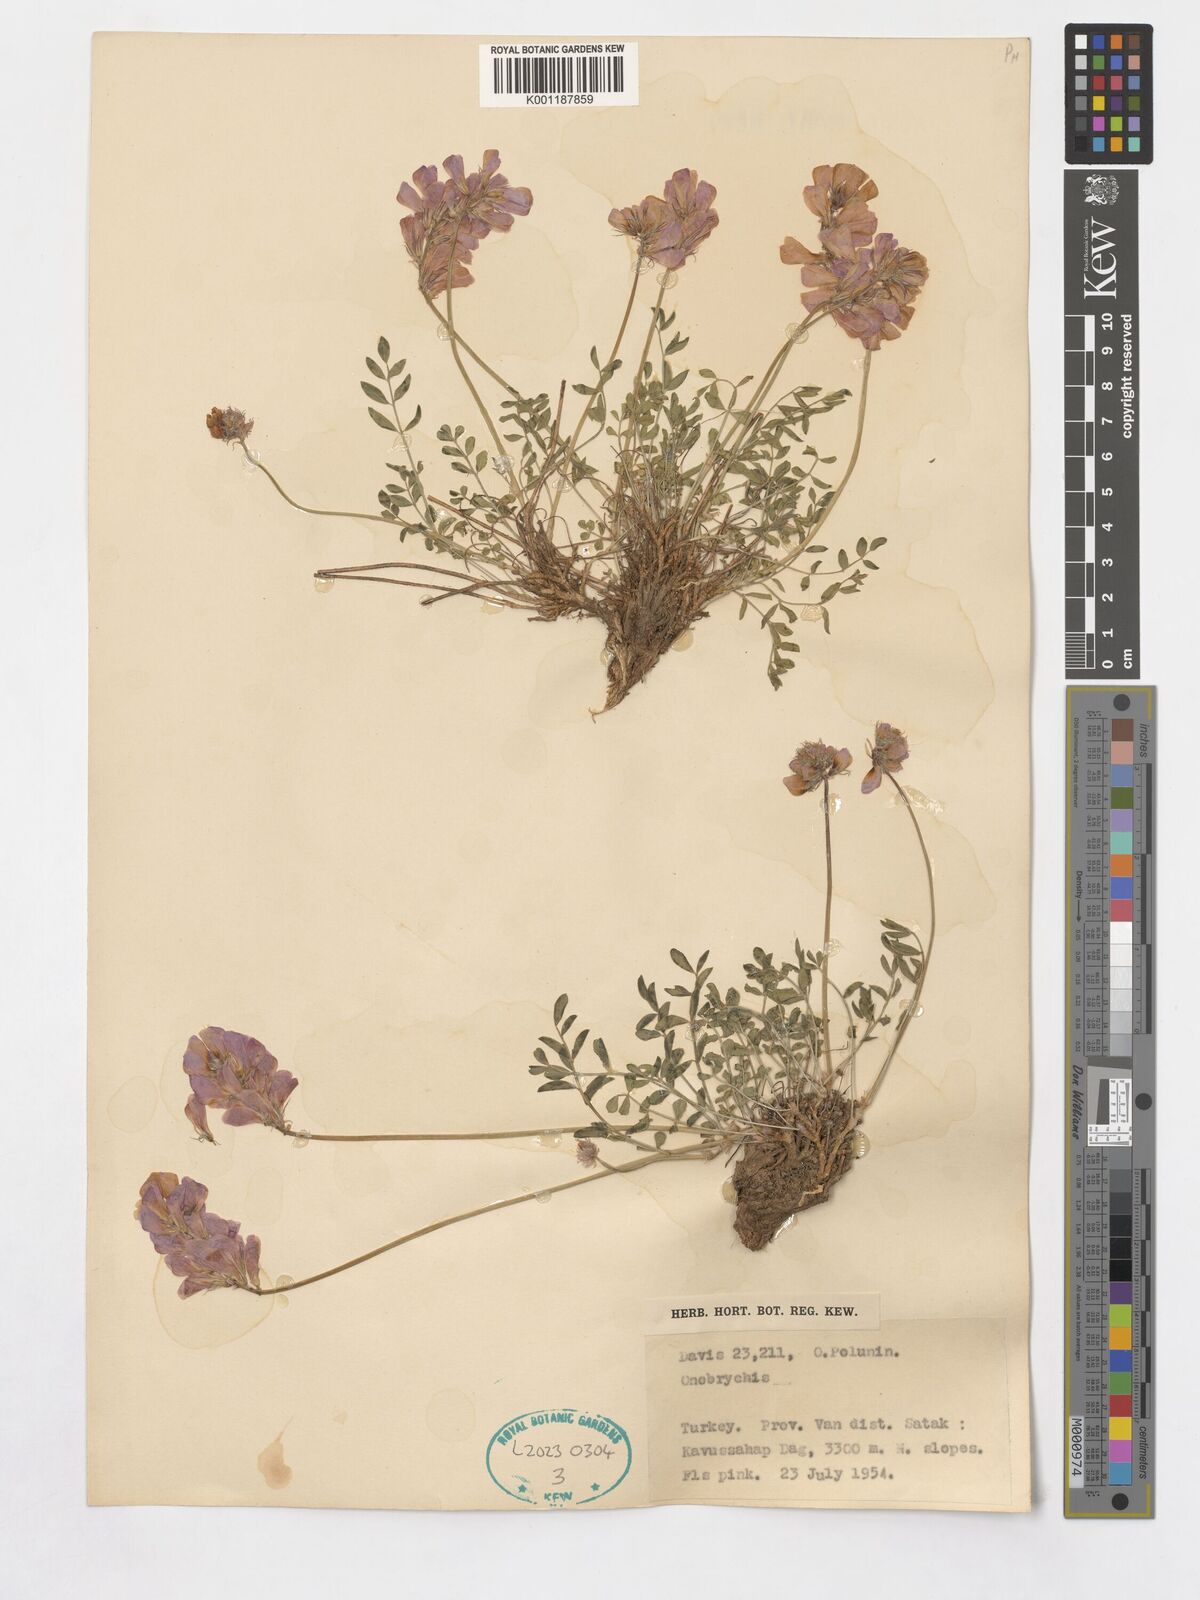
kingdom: Plantae
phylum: Tracheophyta
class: Magnoliopsida
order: Fabales
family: Fabaceae
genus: Onobrychis
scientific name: Onobrychis
